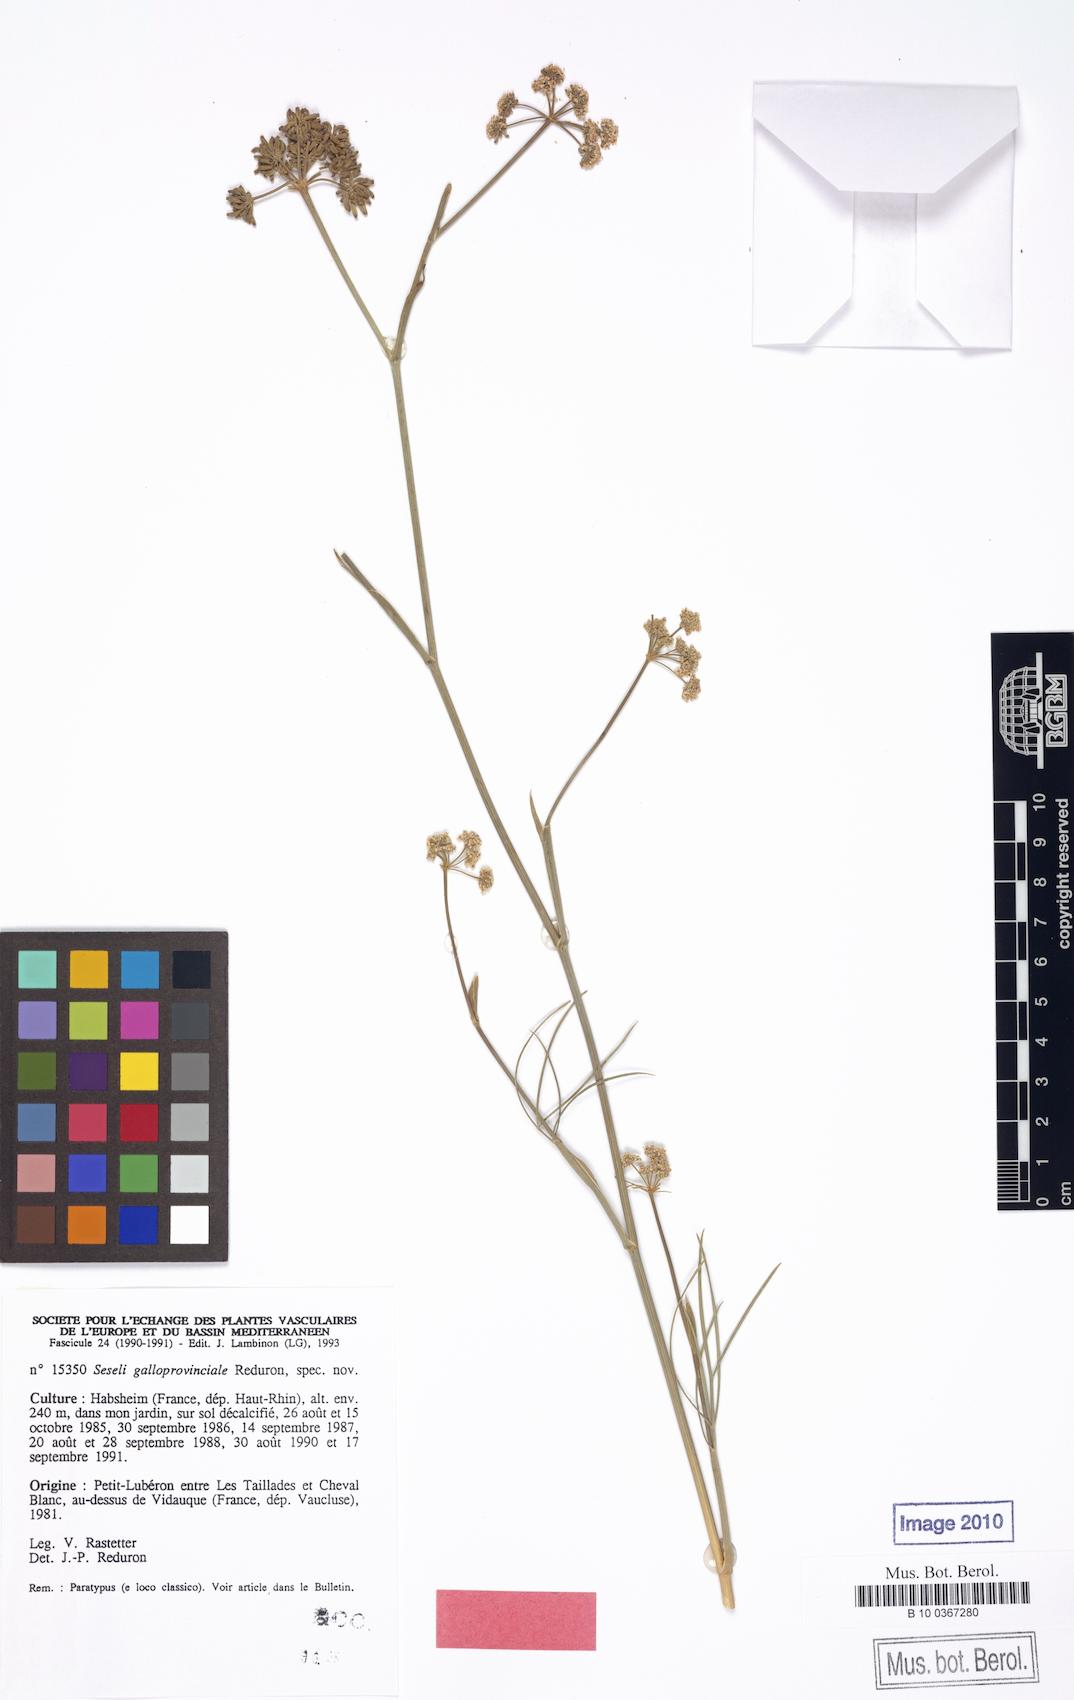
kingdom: Plantae
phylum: Tracheophyta
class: Magnoliopsida
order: Apiales
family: Apiaceae
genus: Seseli
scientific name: Seseli galloprovinciale
